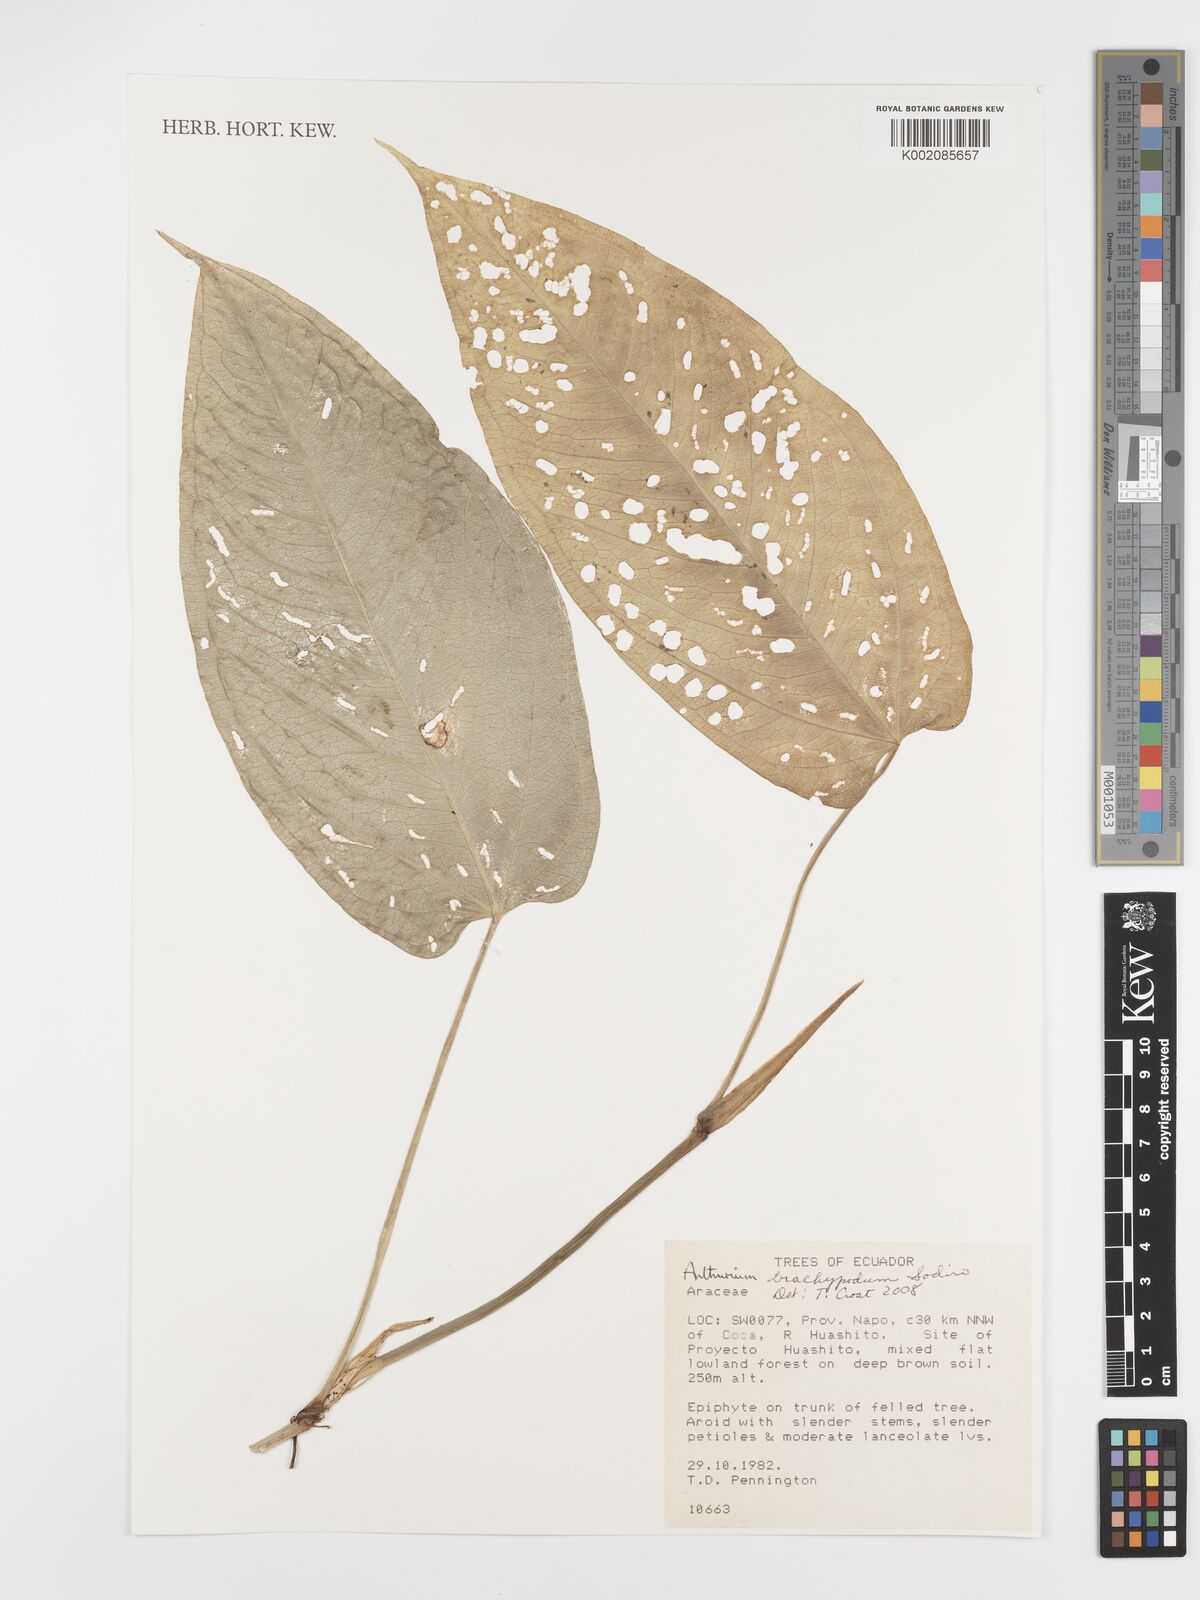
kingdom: Plantae
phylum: Tracheophyta
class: Liliopsida
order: Alismatales
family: Araceae
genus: Anthurium
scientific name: Anthurium brachypodum
